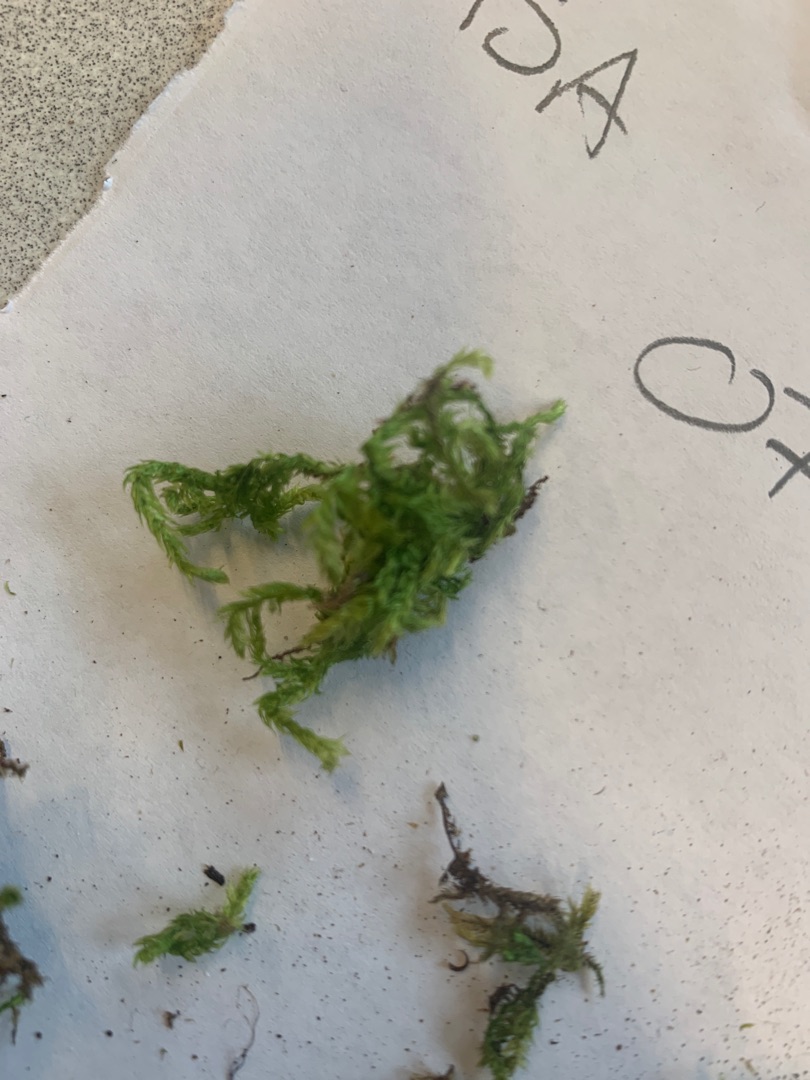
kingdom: Plantae
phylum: Bryophyta
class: Bryopsida
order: Hypnales
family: Brachytheciaceae
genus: Brachythecium
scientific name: Brachythecium rutabulum
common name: Almindelig kortkapsel
